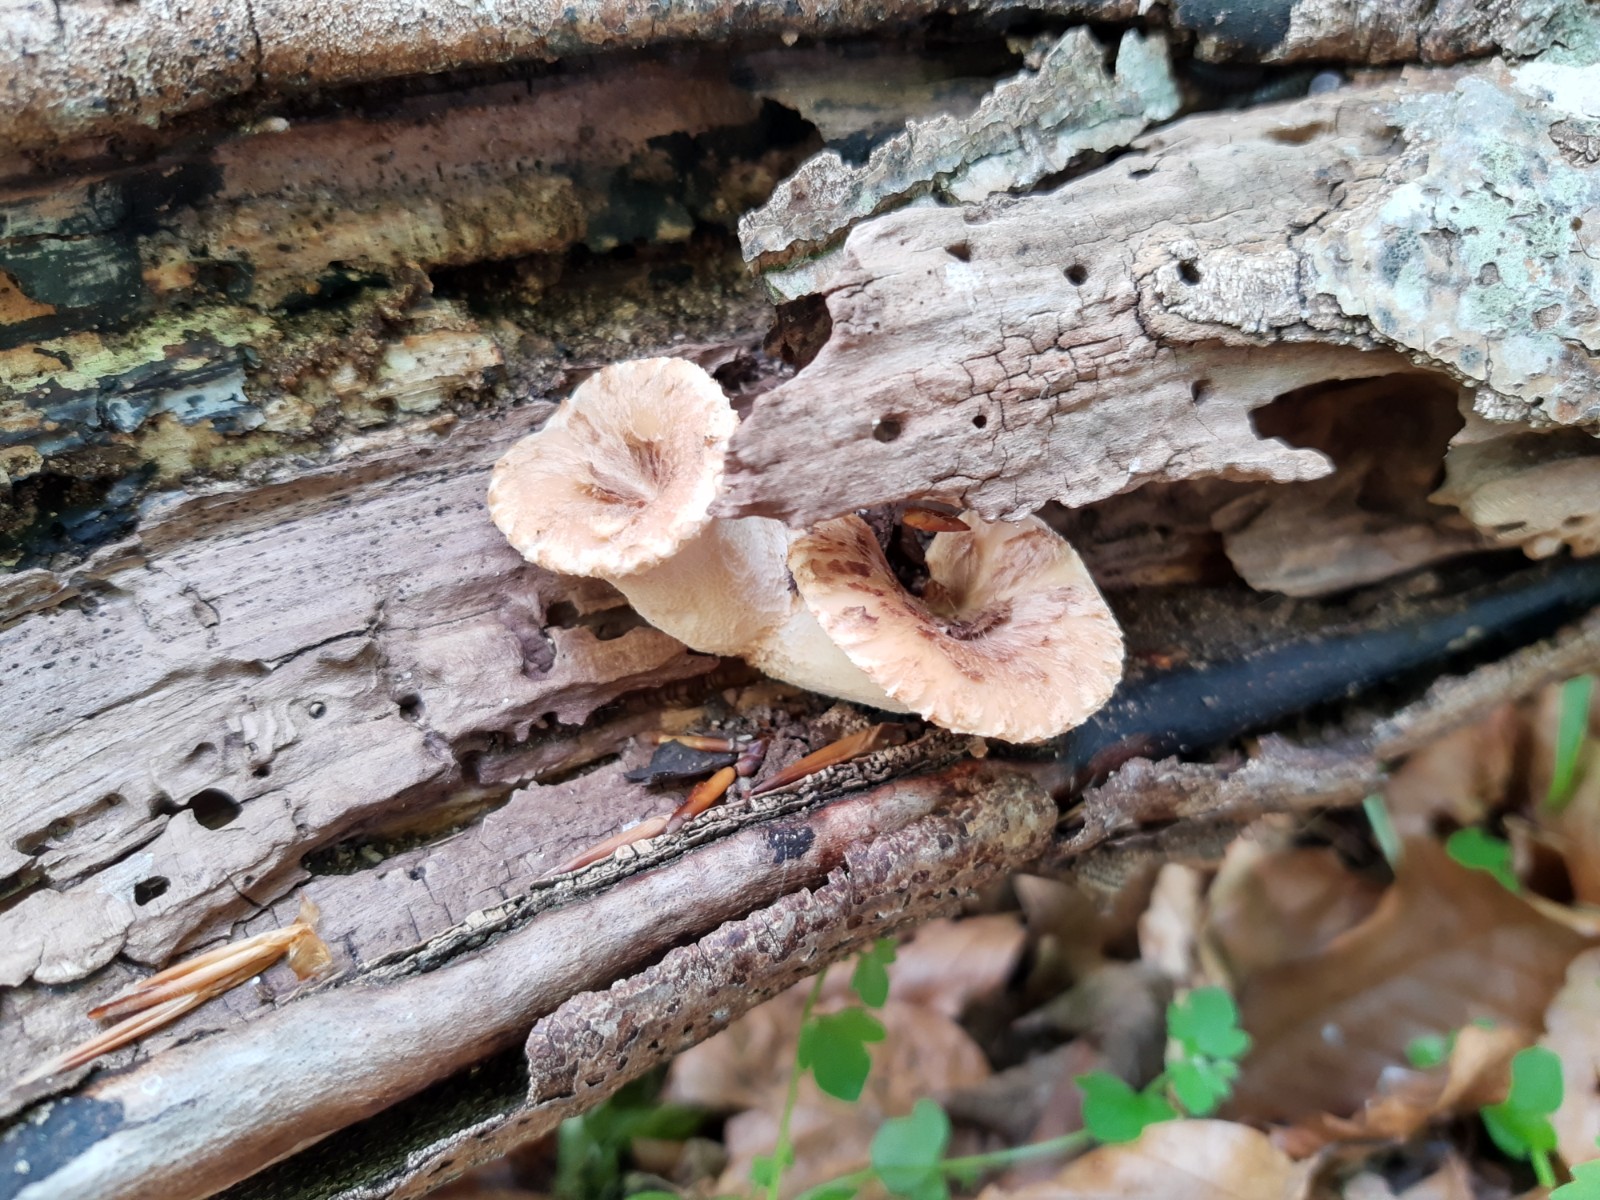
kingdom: Fungi
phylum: Basidiomycota
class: Agaricomycetes
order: Polyporales
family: Polyporaceae
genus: Cerioporus
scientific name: Cerioporus squamosus
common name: skællet stilkporesvamp
